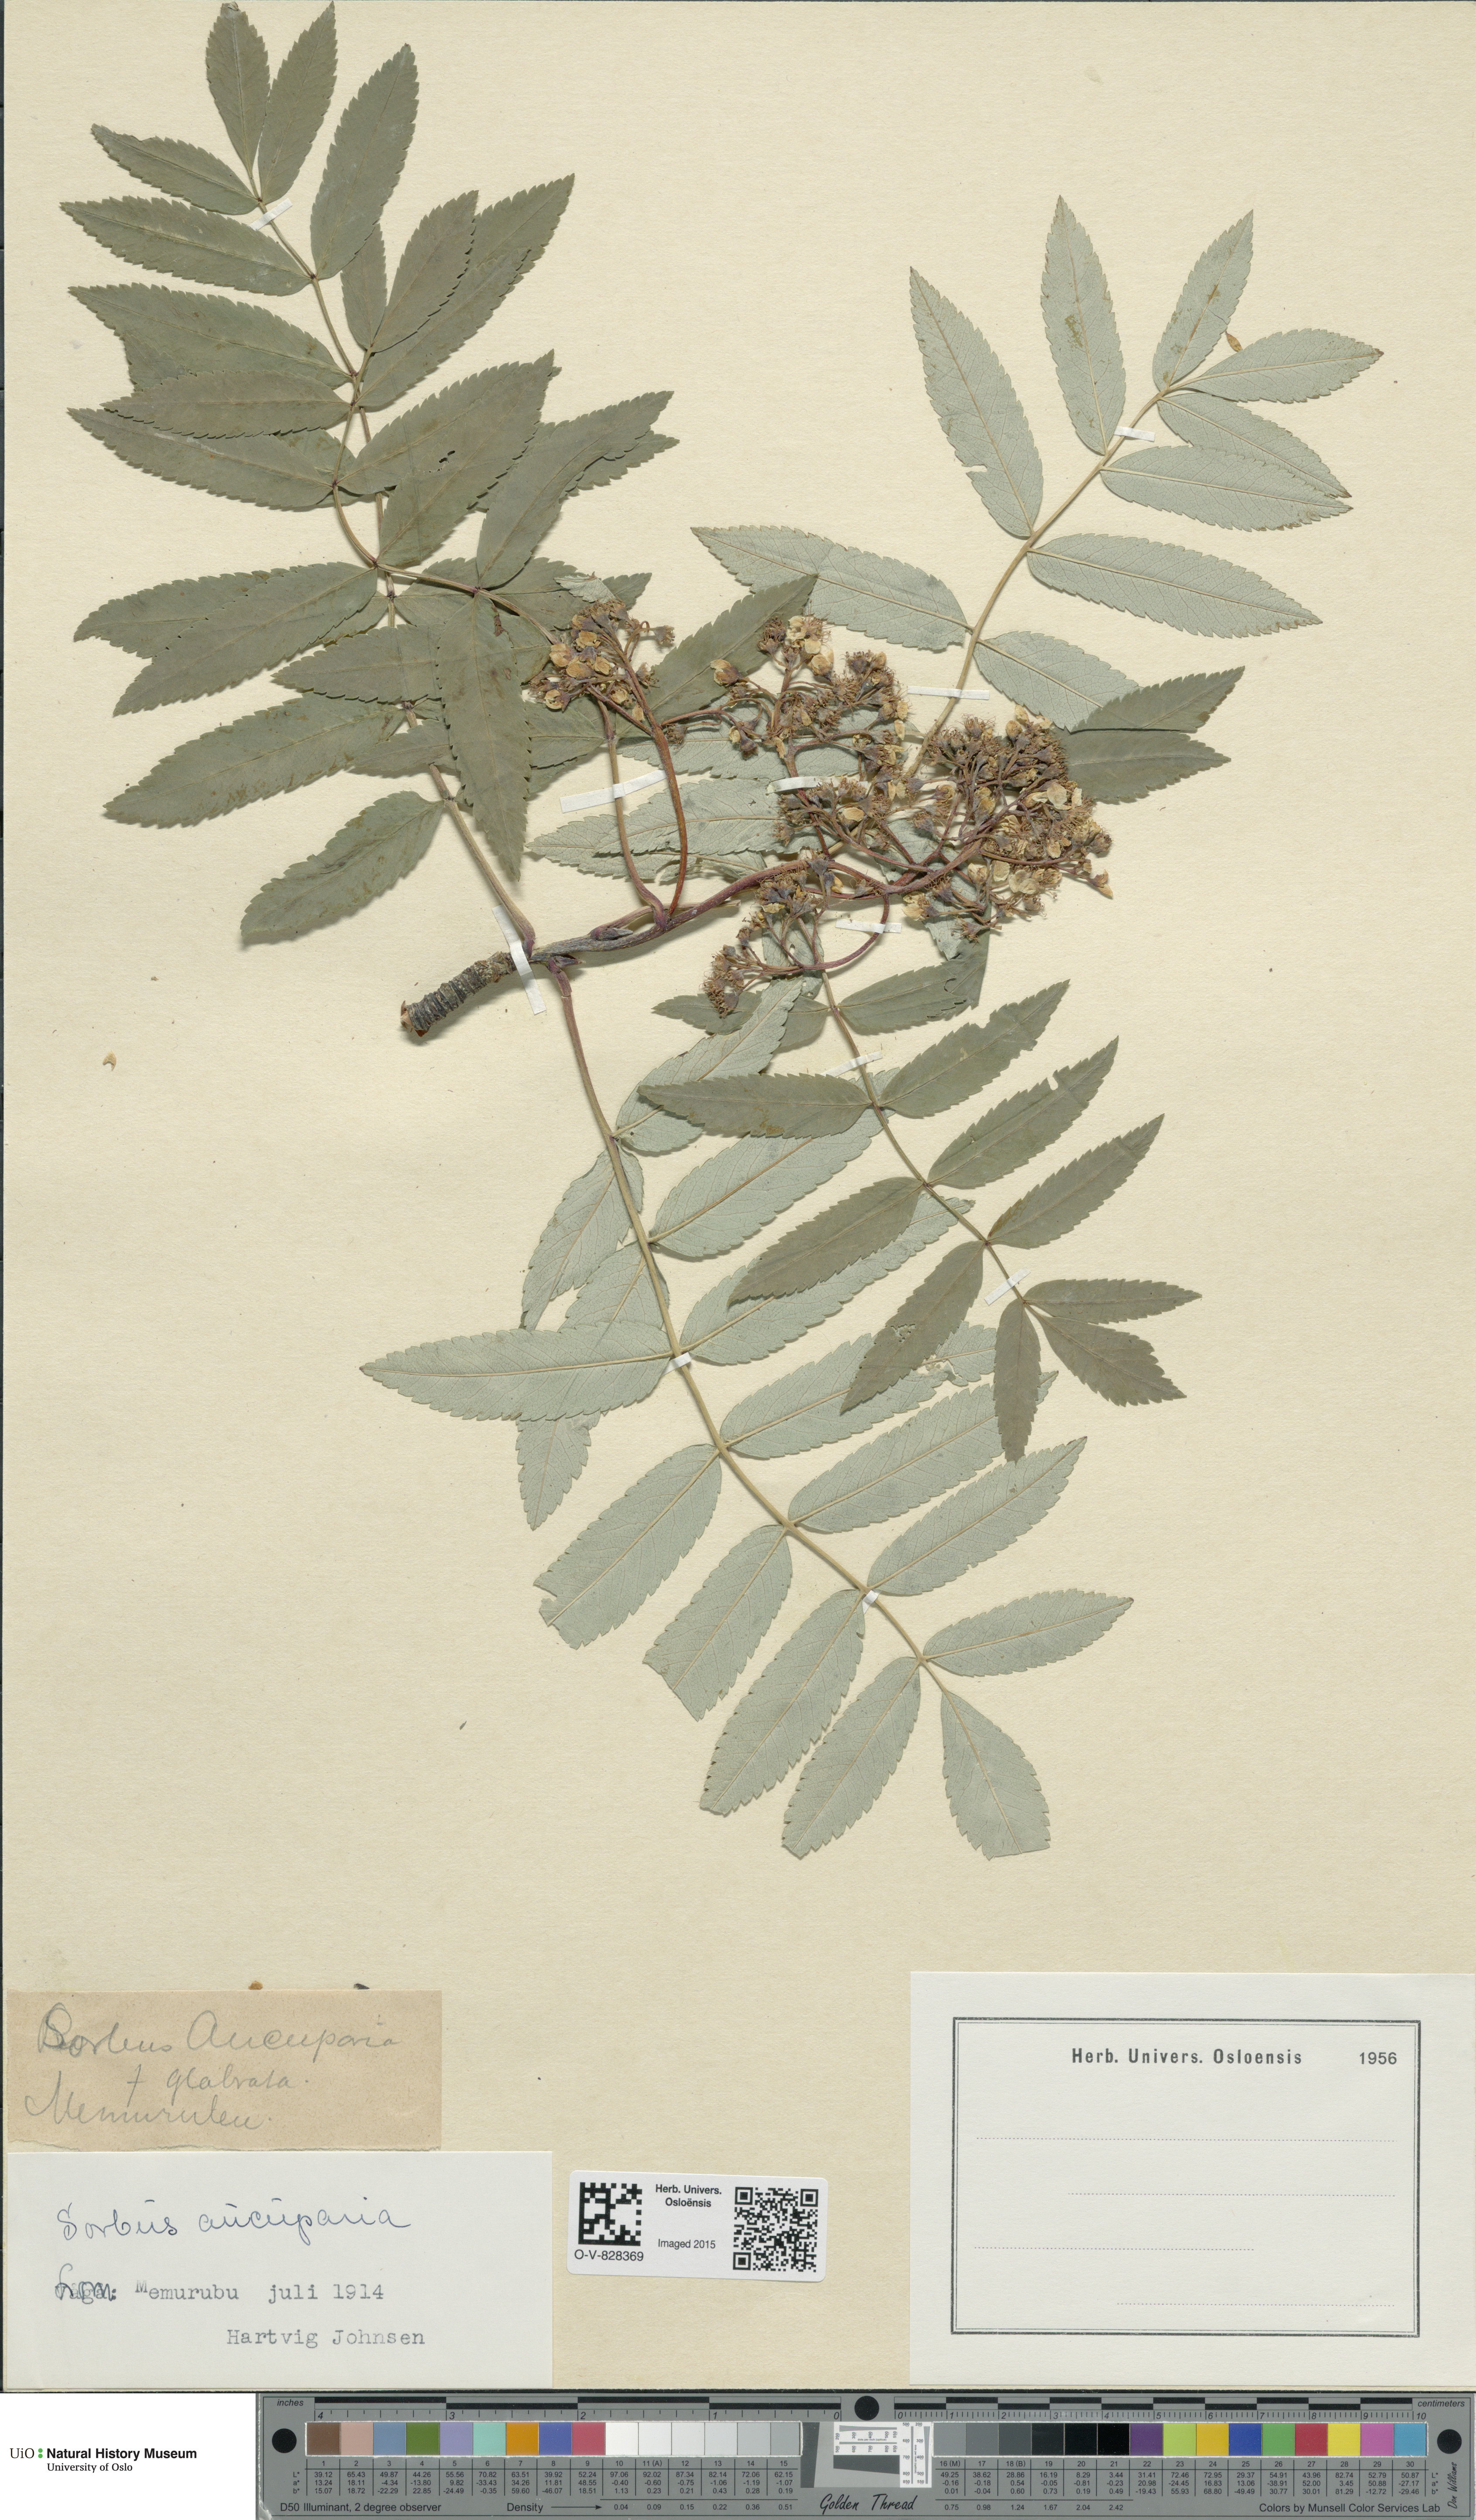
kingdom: Plantae
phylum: Tracheophyta
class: Magnoliopsida
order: Rosales
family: Rosaceae
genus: Sorbus
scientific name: Sorbus aucuparia
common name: Rowan
